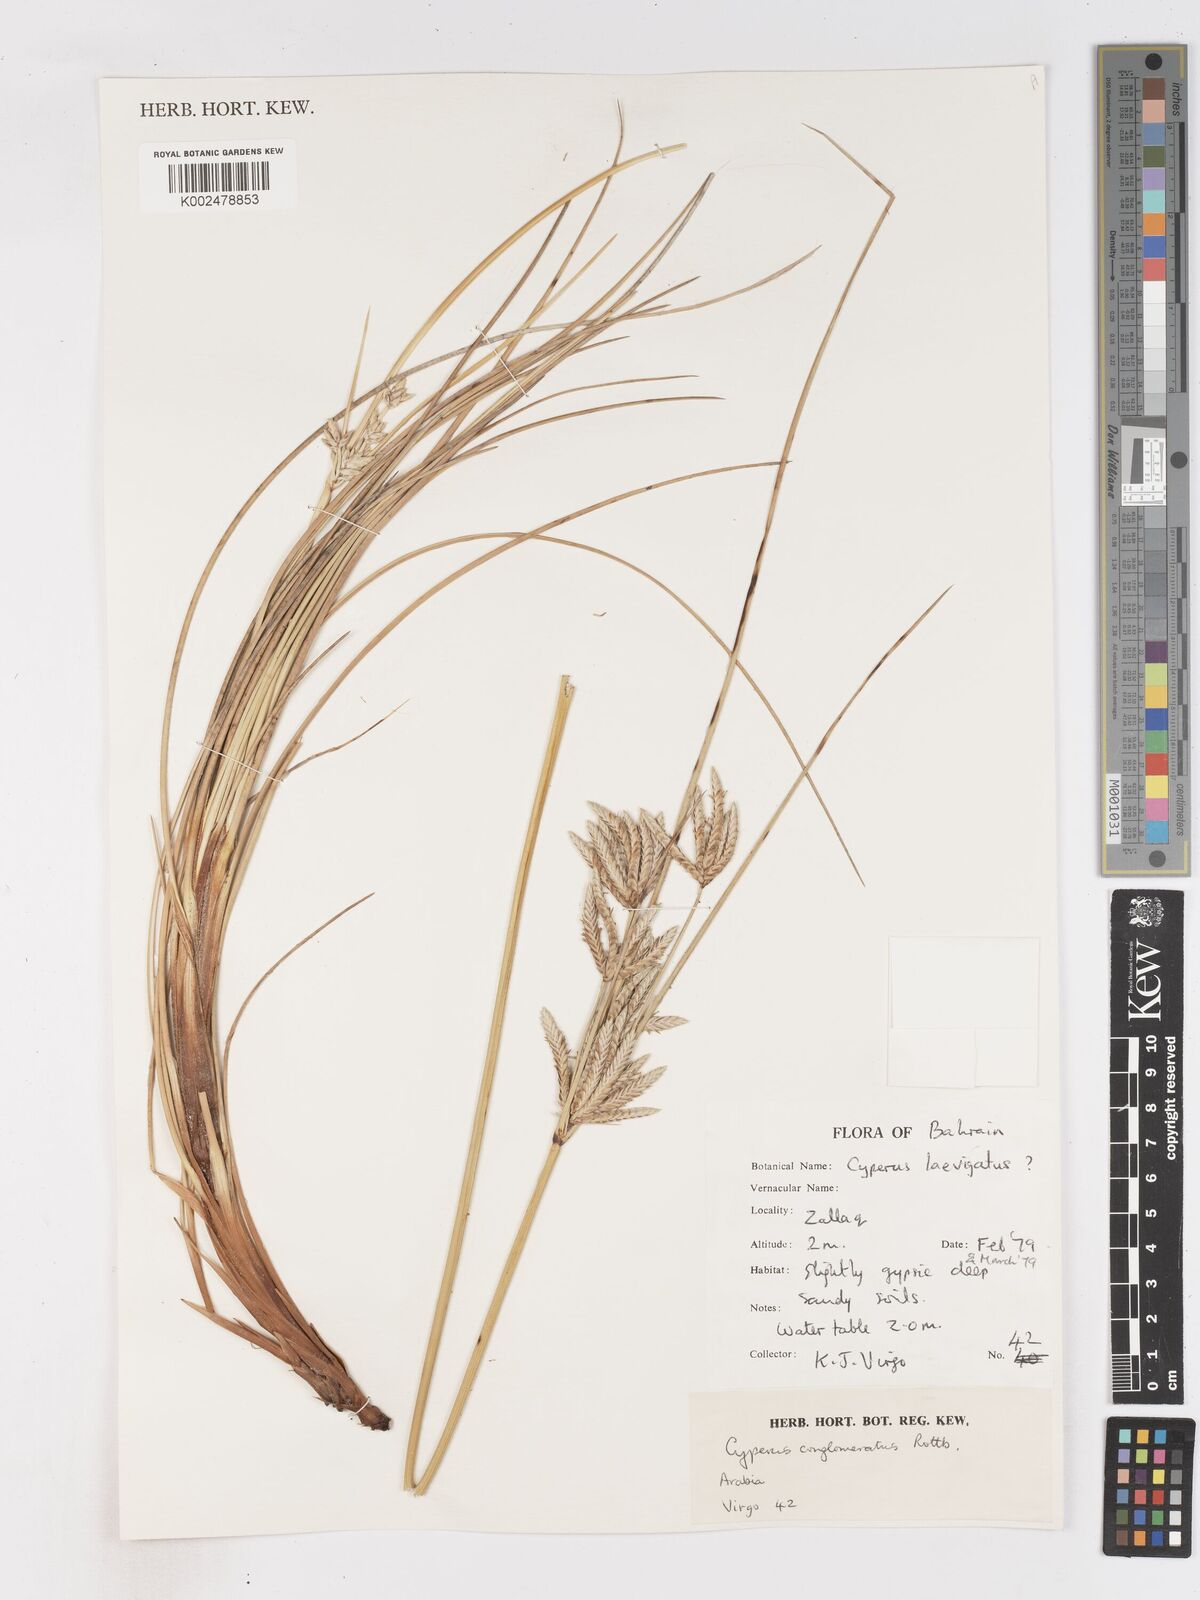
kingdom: Plantae
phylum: Tracheophyta
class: Liliopsida
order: Poales
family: Cyperaceae
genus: Cyperus
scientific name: Cyperus aucheri
